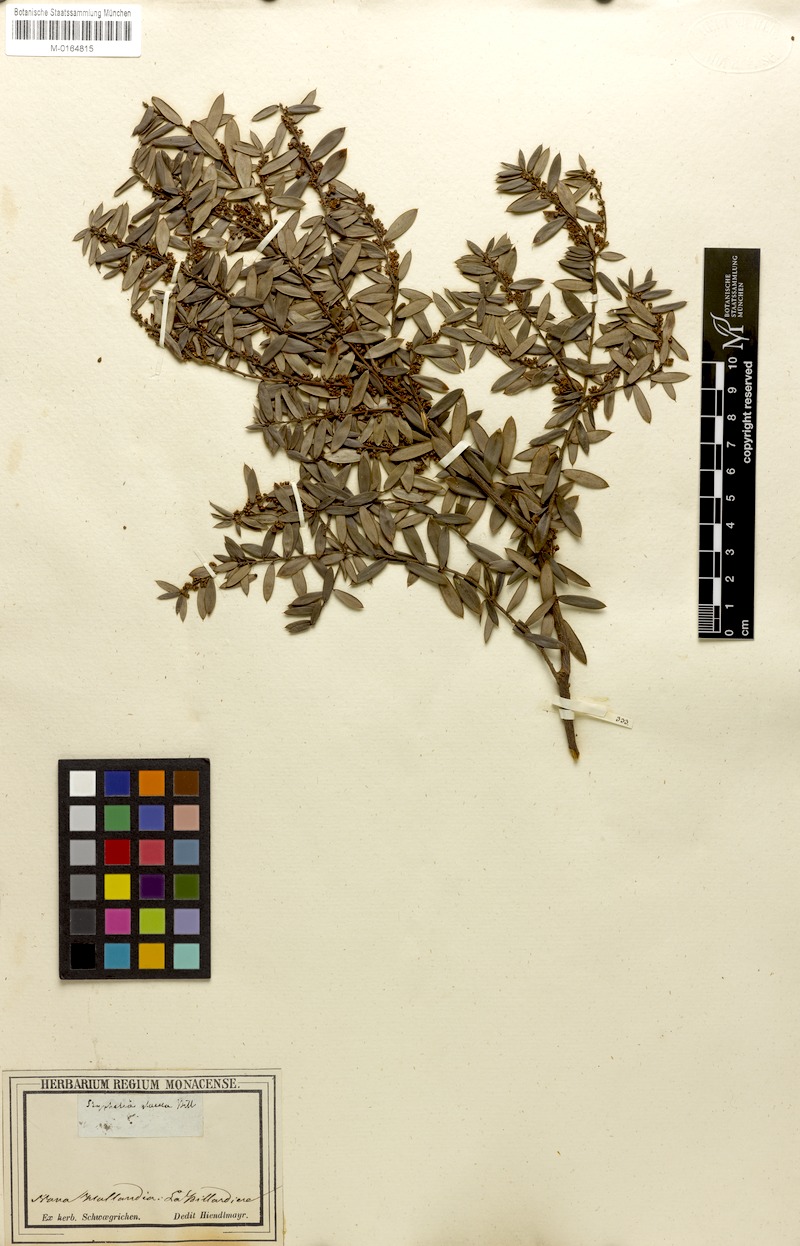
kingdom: Plantae
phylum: Tracheophyta
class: Magnoliopsida
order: Ericales
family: Ericaceae
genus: Monotoca
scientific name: Monotoca glauca
